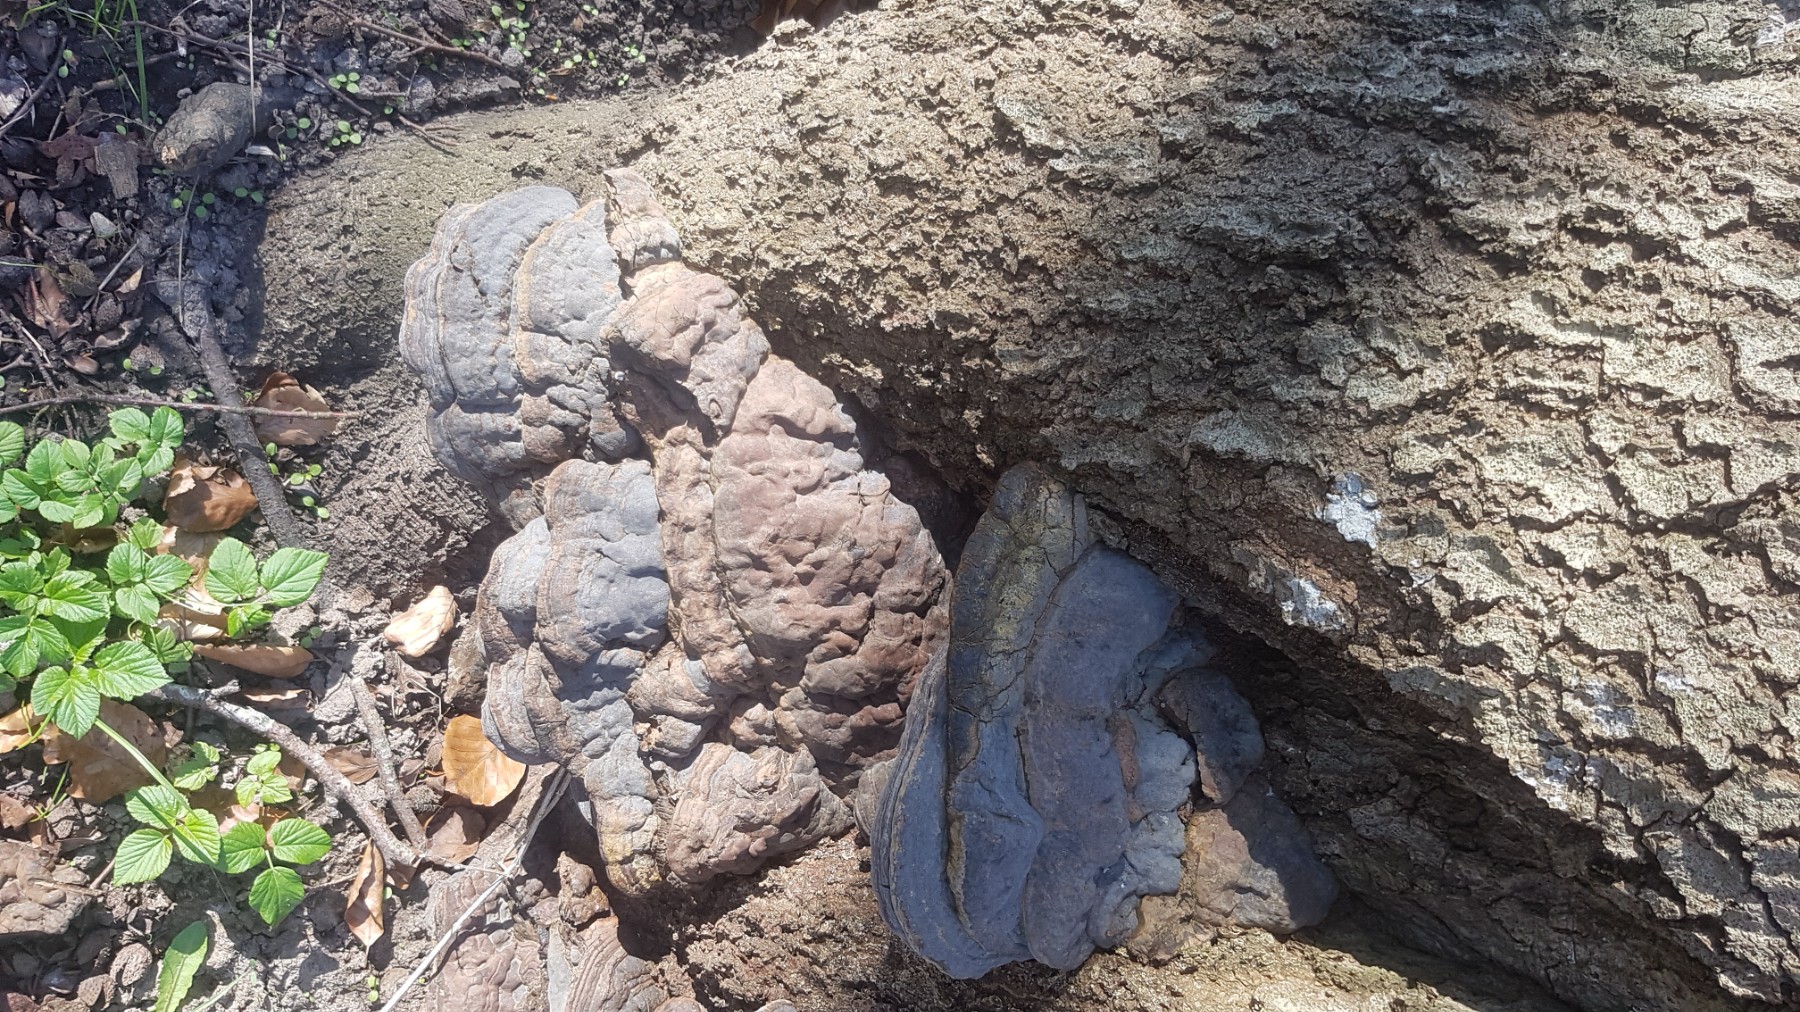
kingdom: Fungi
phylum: Basidiomycota
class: Agaricomycetes
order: Polyporales
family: Polyporaceae
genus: Ganoderma
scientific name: Ganoderma pfeifferi
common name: kobberrød lakporesvamp
